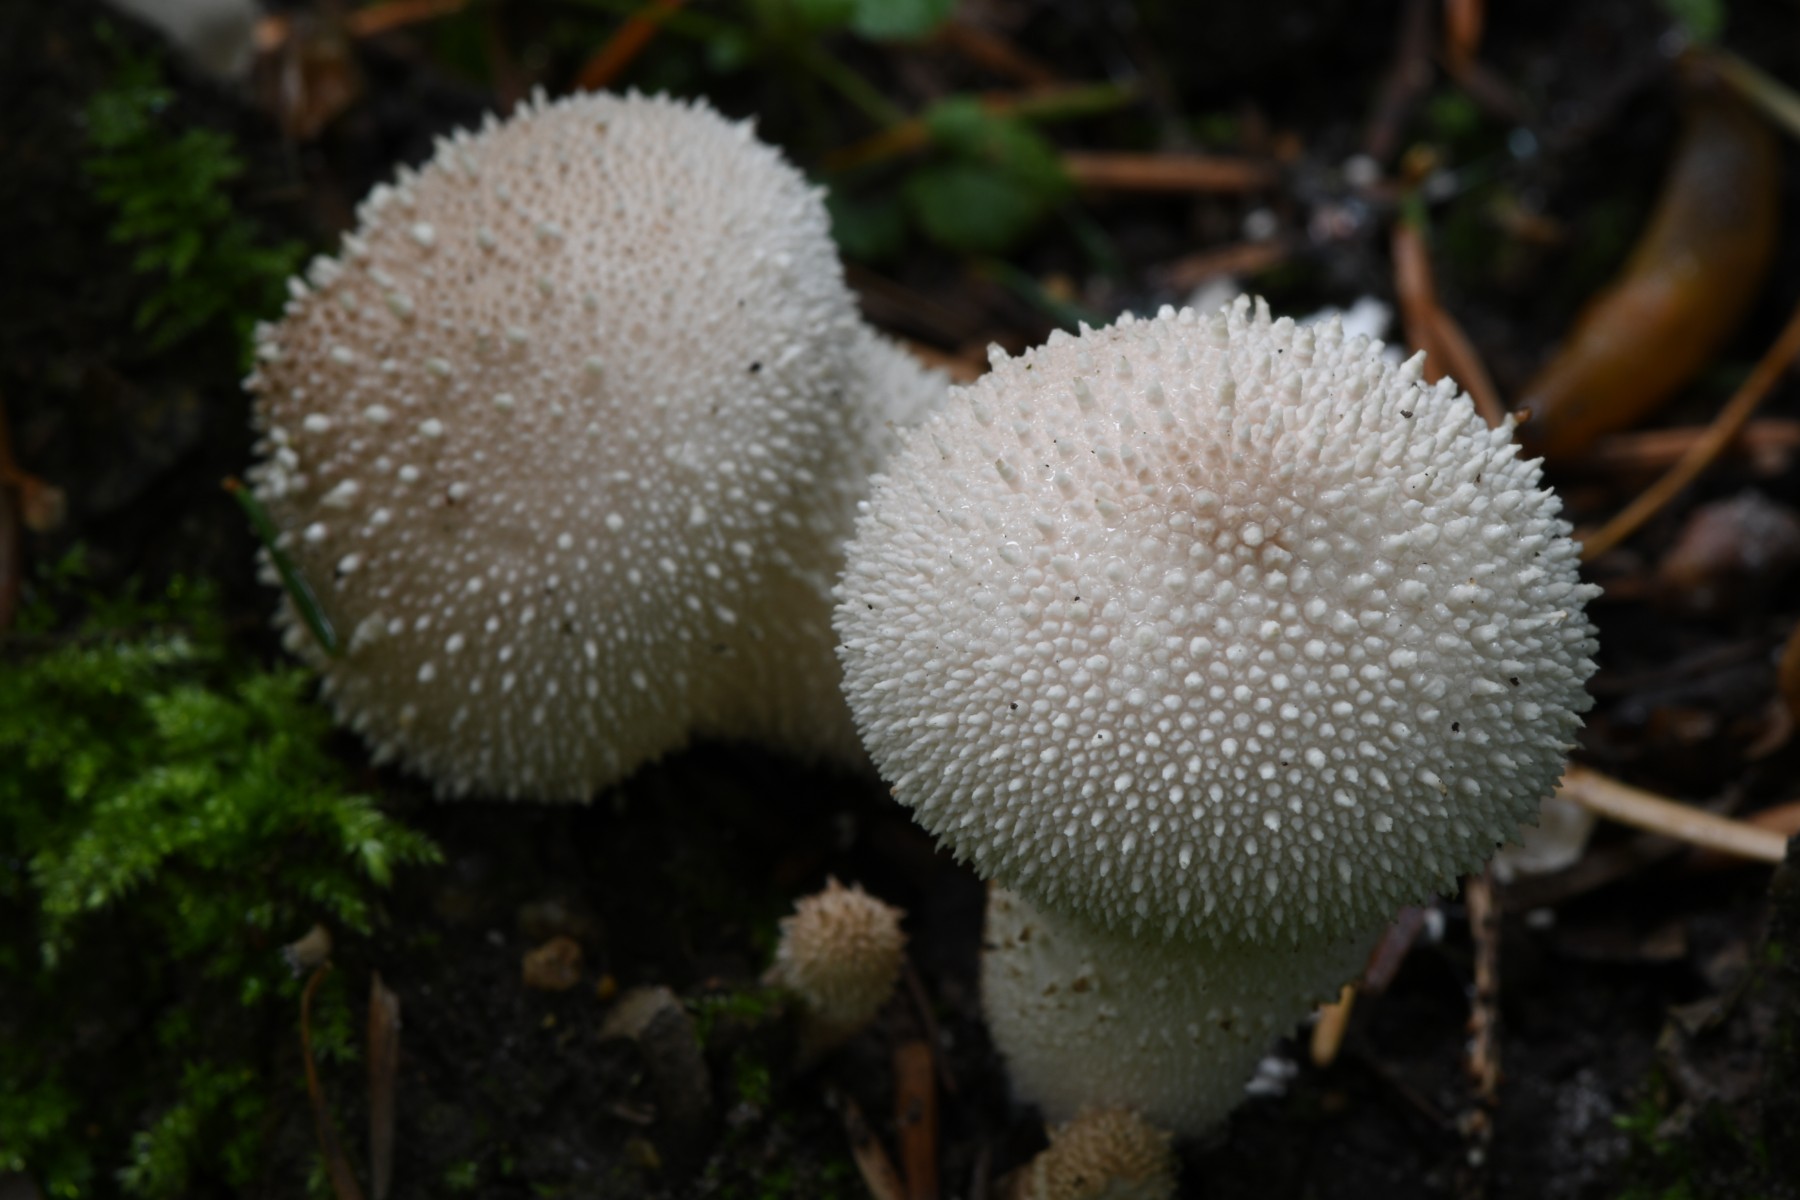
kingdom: Fungi
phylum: Basidiomycota
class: Agaricomycetes
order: Agaricales
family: Lycoperdaceae
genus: Lycoperdon
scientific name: Lycoperdon perlatum
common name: krystal-støvbold
